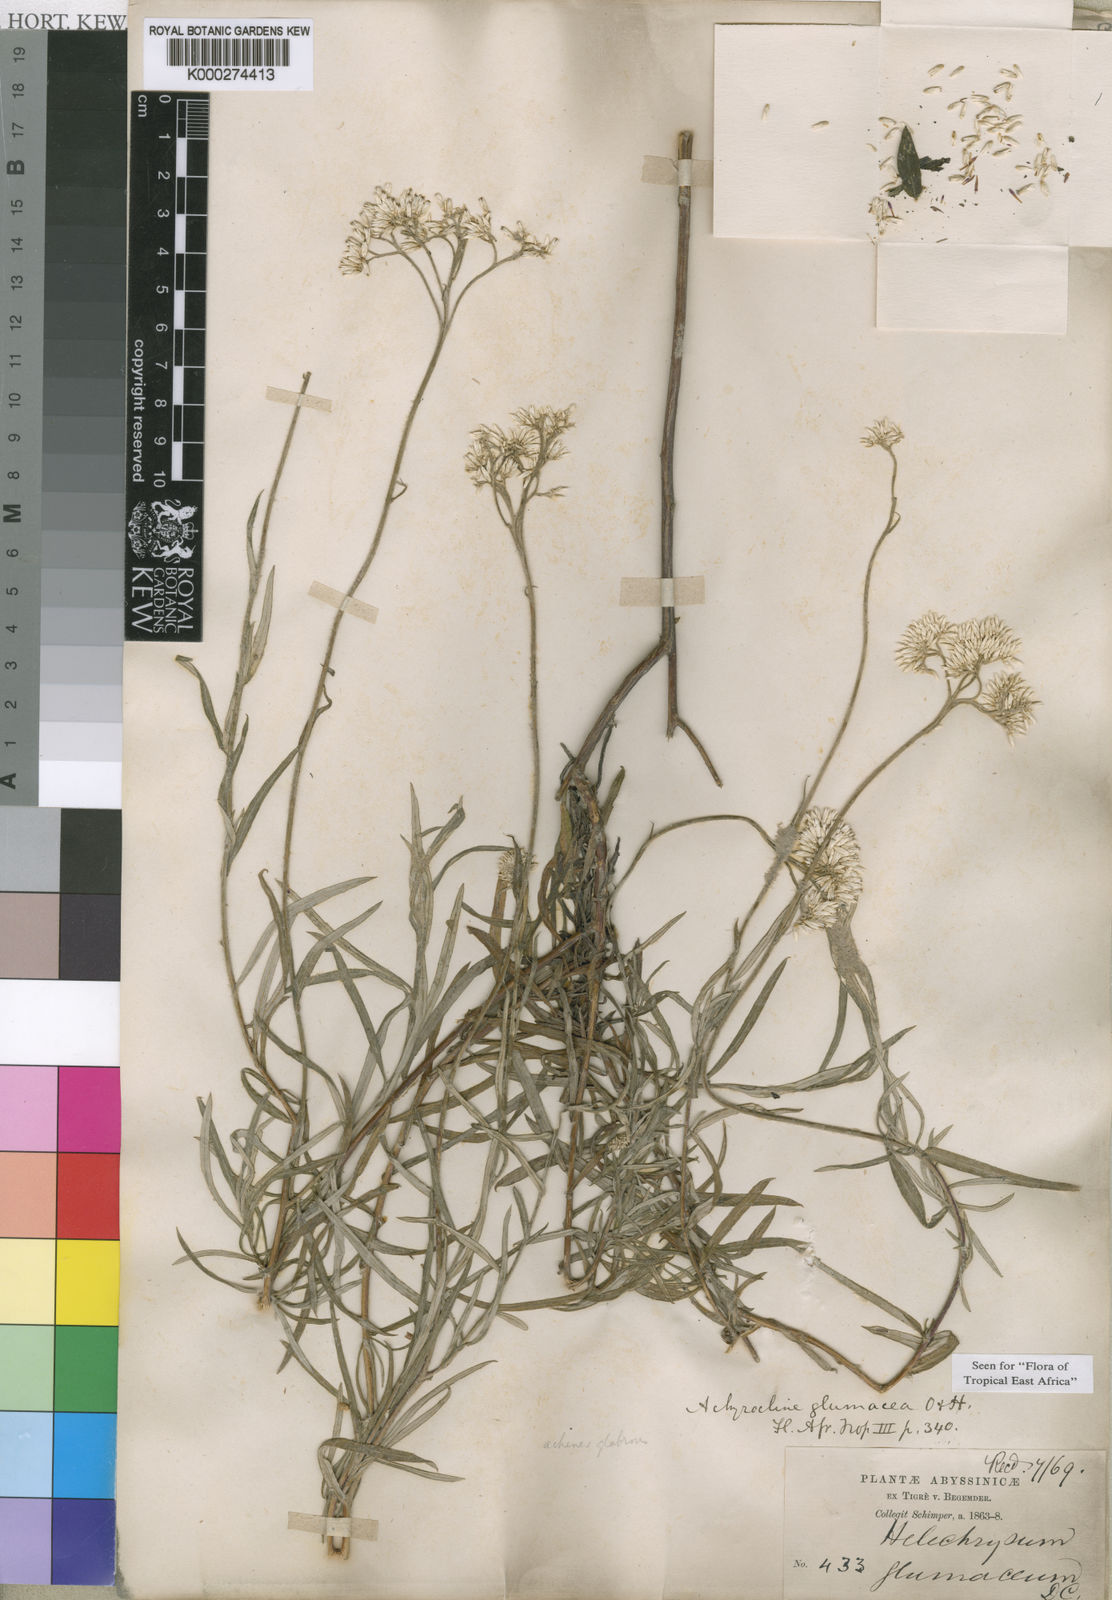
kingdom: Plantae
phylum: Tracheophyta
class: Magnoliopsida
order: Asterales
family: Asteraceae
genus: Helichrysum
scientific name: Helichrysum glumaceum
